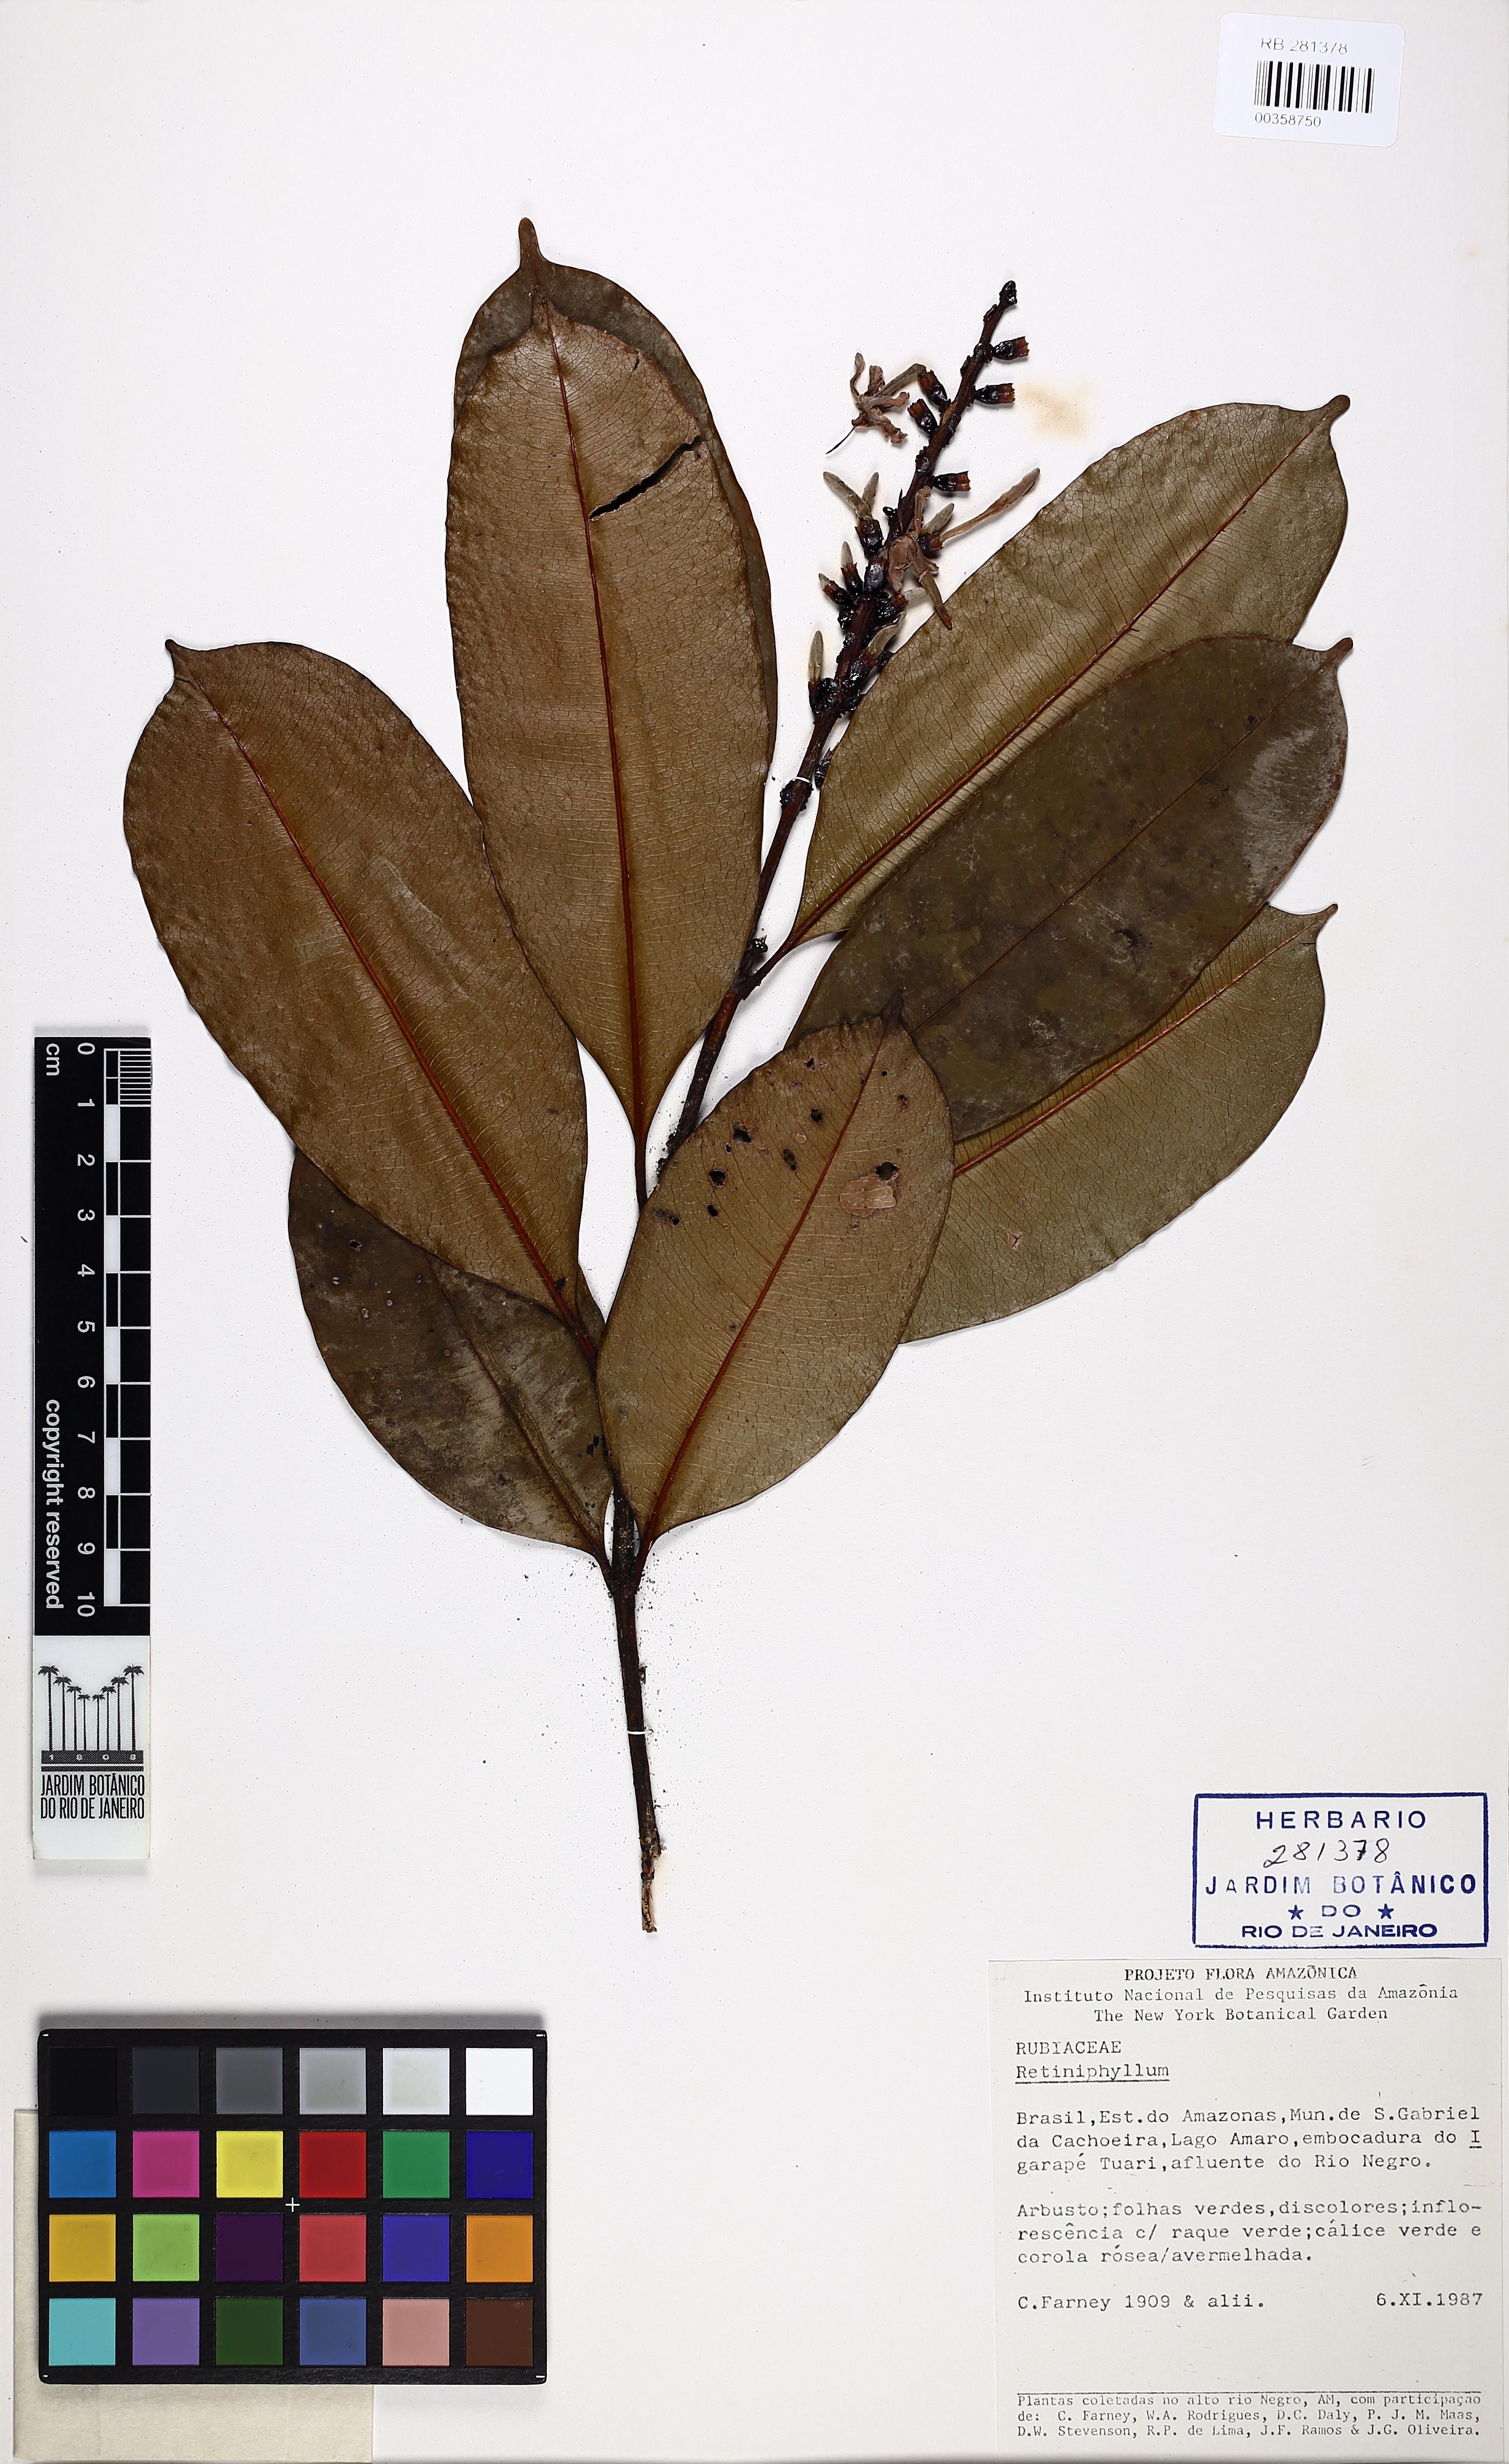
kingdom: Plantae
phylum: Tracheophyta
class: Magnoliopsida
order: Gentianales
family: Rubiaceae
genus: Retiniphyllum
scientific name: Retiniphyllum speciosum
